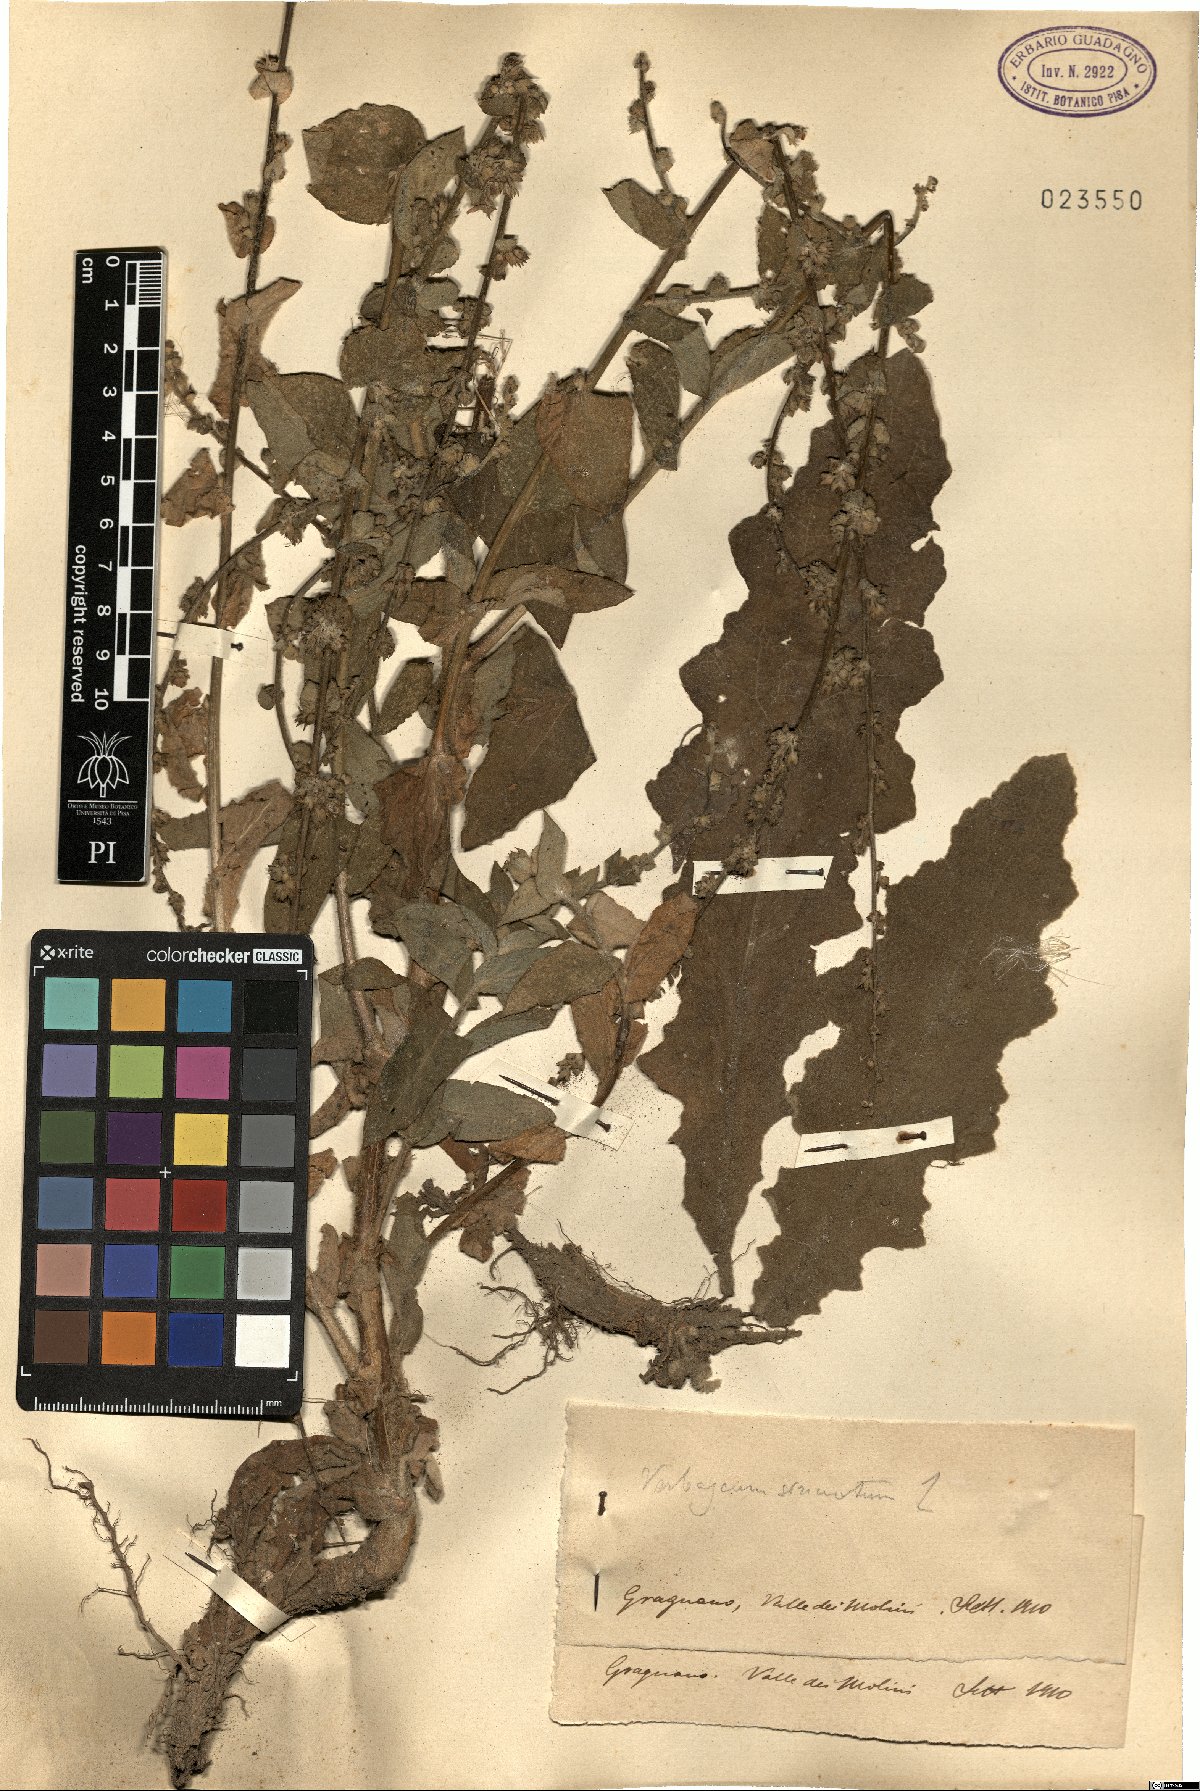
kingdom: Plantae
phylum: Tracheophyta
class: Magnoliopsida
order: Lamiales
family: Scrophulariaceae
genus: Verbascum
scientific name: Verbascum sinuatum
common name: Wavyleaf mullein
